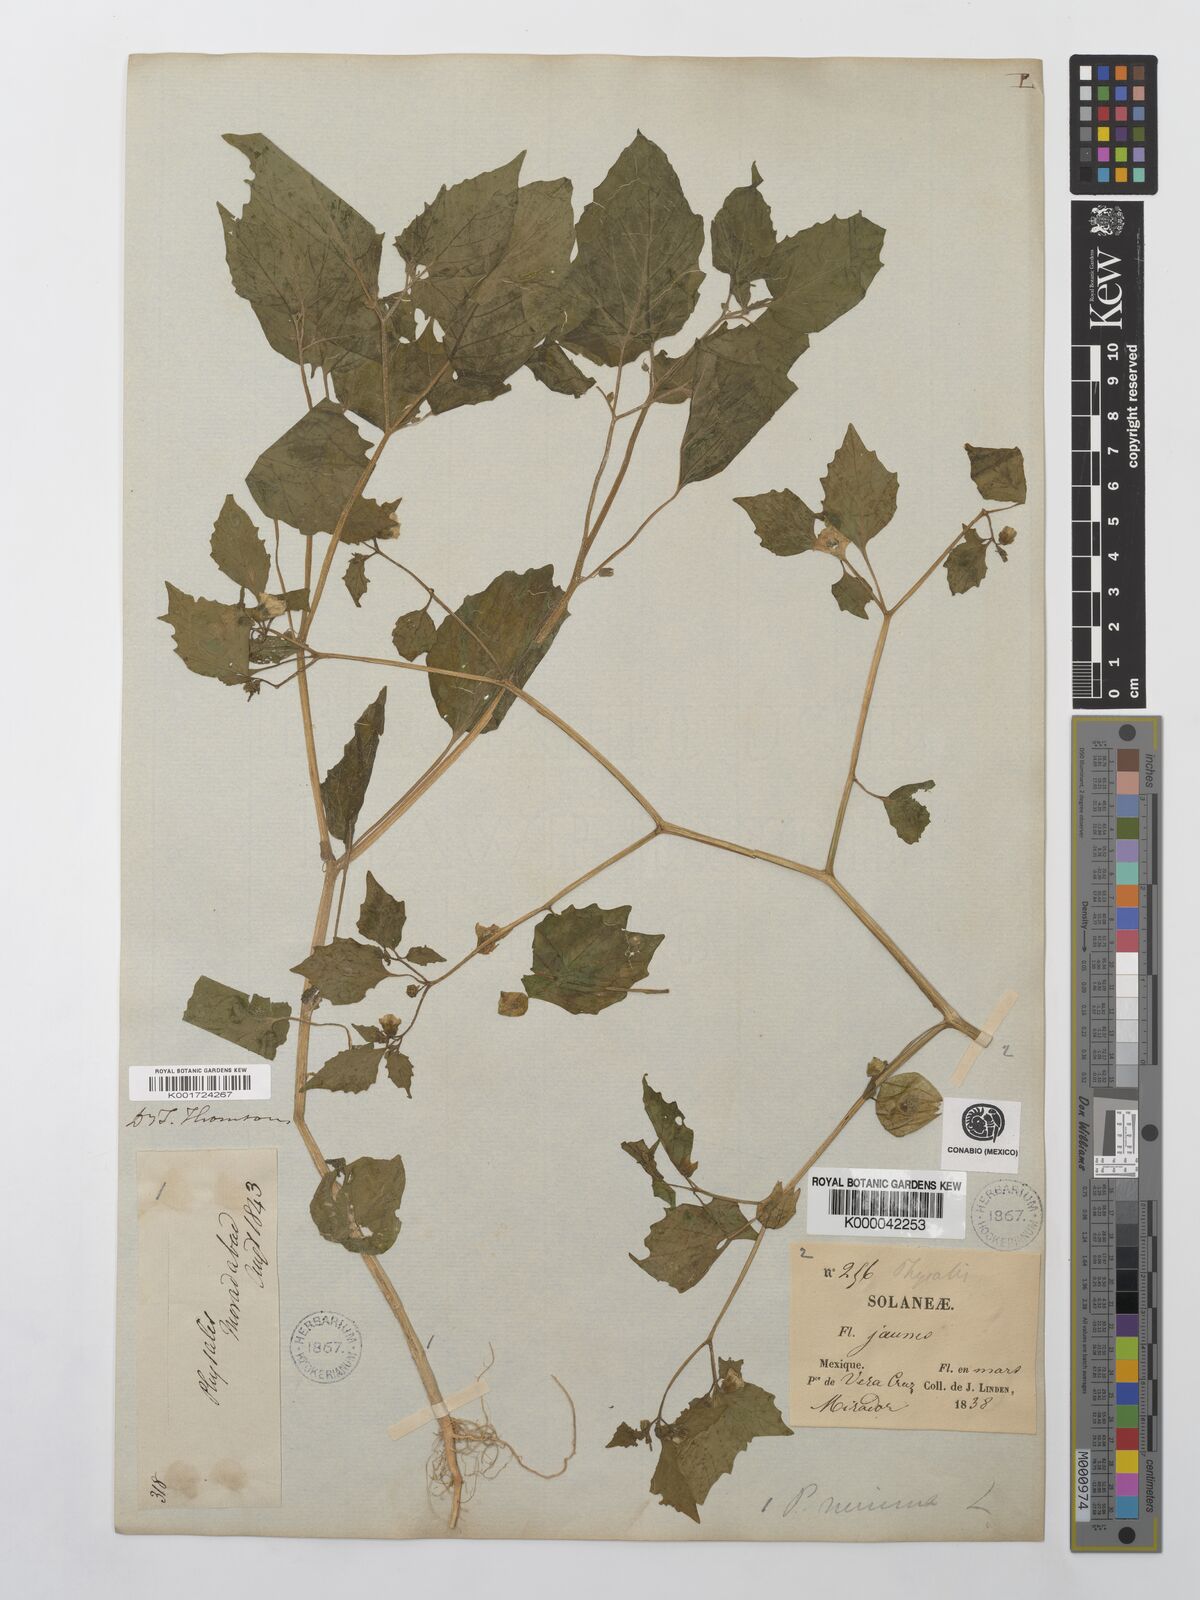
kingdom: Plantae
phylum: Tracheophyta
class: Magnoliopsida
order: Solanales
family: Solanaceae
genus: Physalis
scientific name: Physalis angulata
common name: Angular winter-cherry
